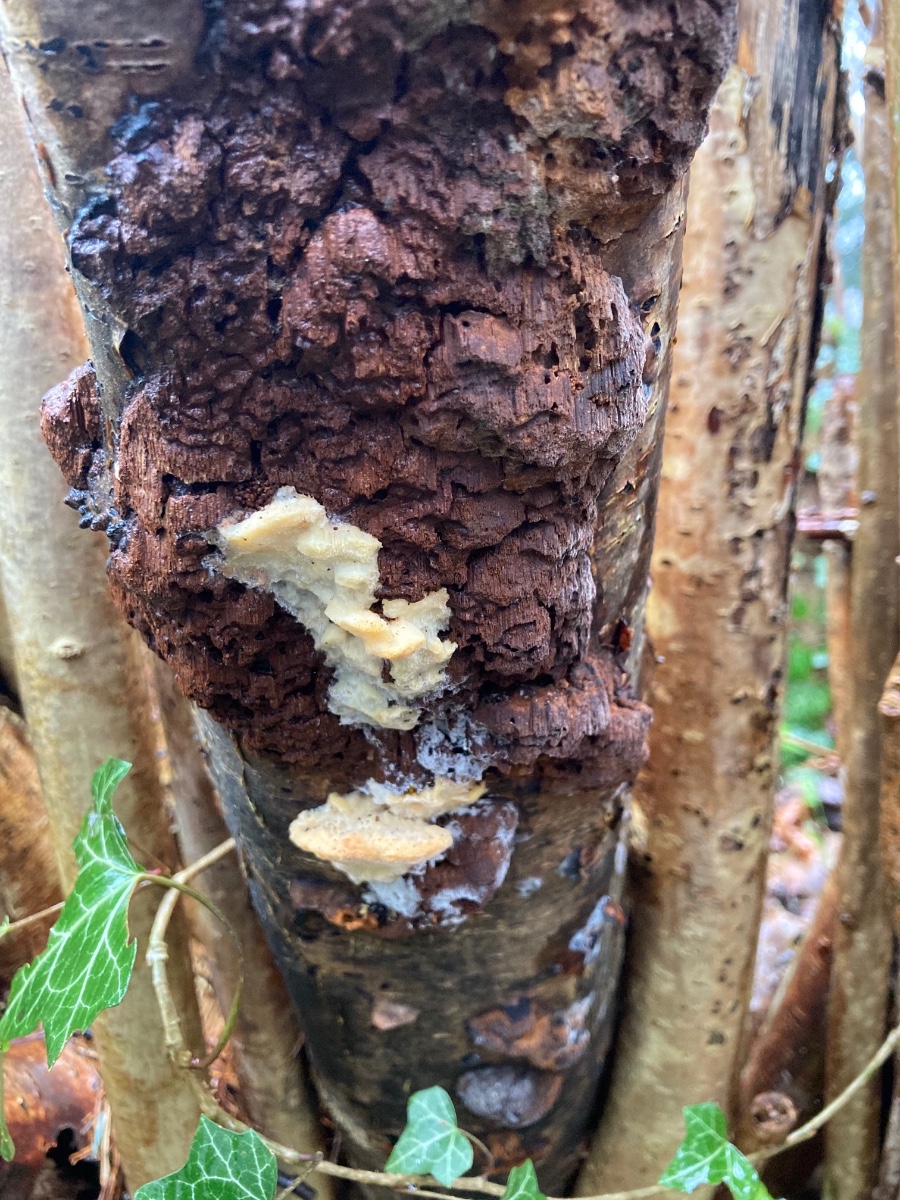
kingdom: Fungi
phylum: Basidiomycota
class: Agaricomycetes
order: Polyporales
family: Steccherinaceae
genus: Antrodiella
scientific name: Antrodiella serpula
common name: gulrandet elastikporesvamp
